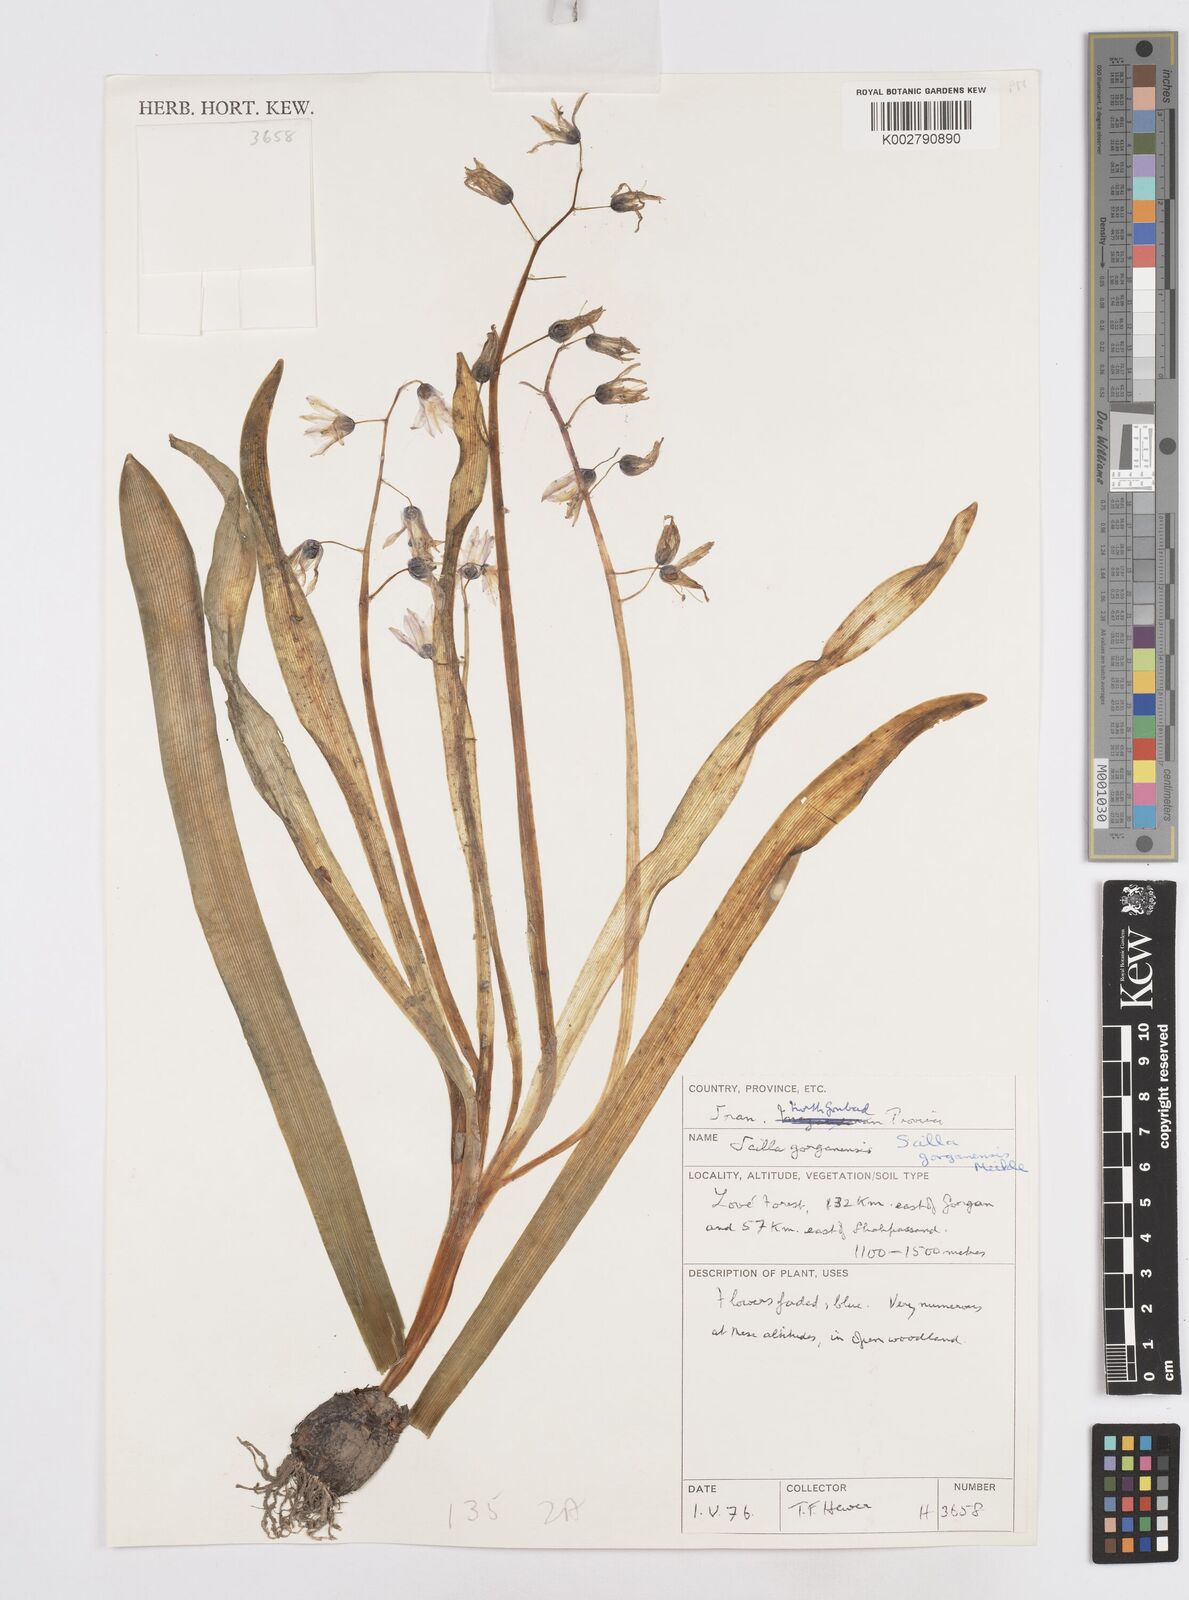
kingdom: Plantae
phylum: Tracheophyta
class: Liliopsida
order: Asparagales
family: Asparagaceae
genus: Fessia
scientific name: Fessia gorganica
